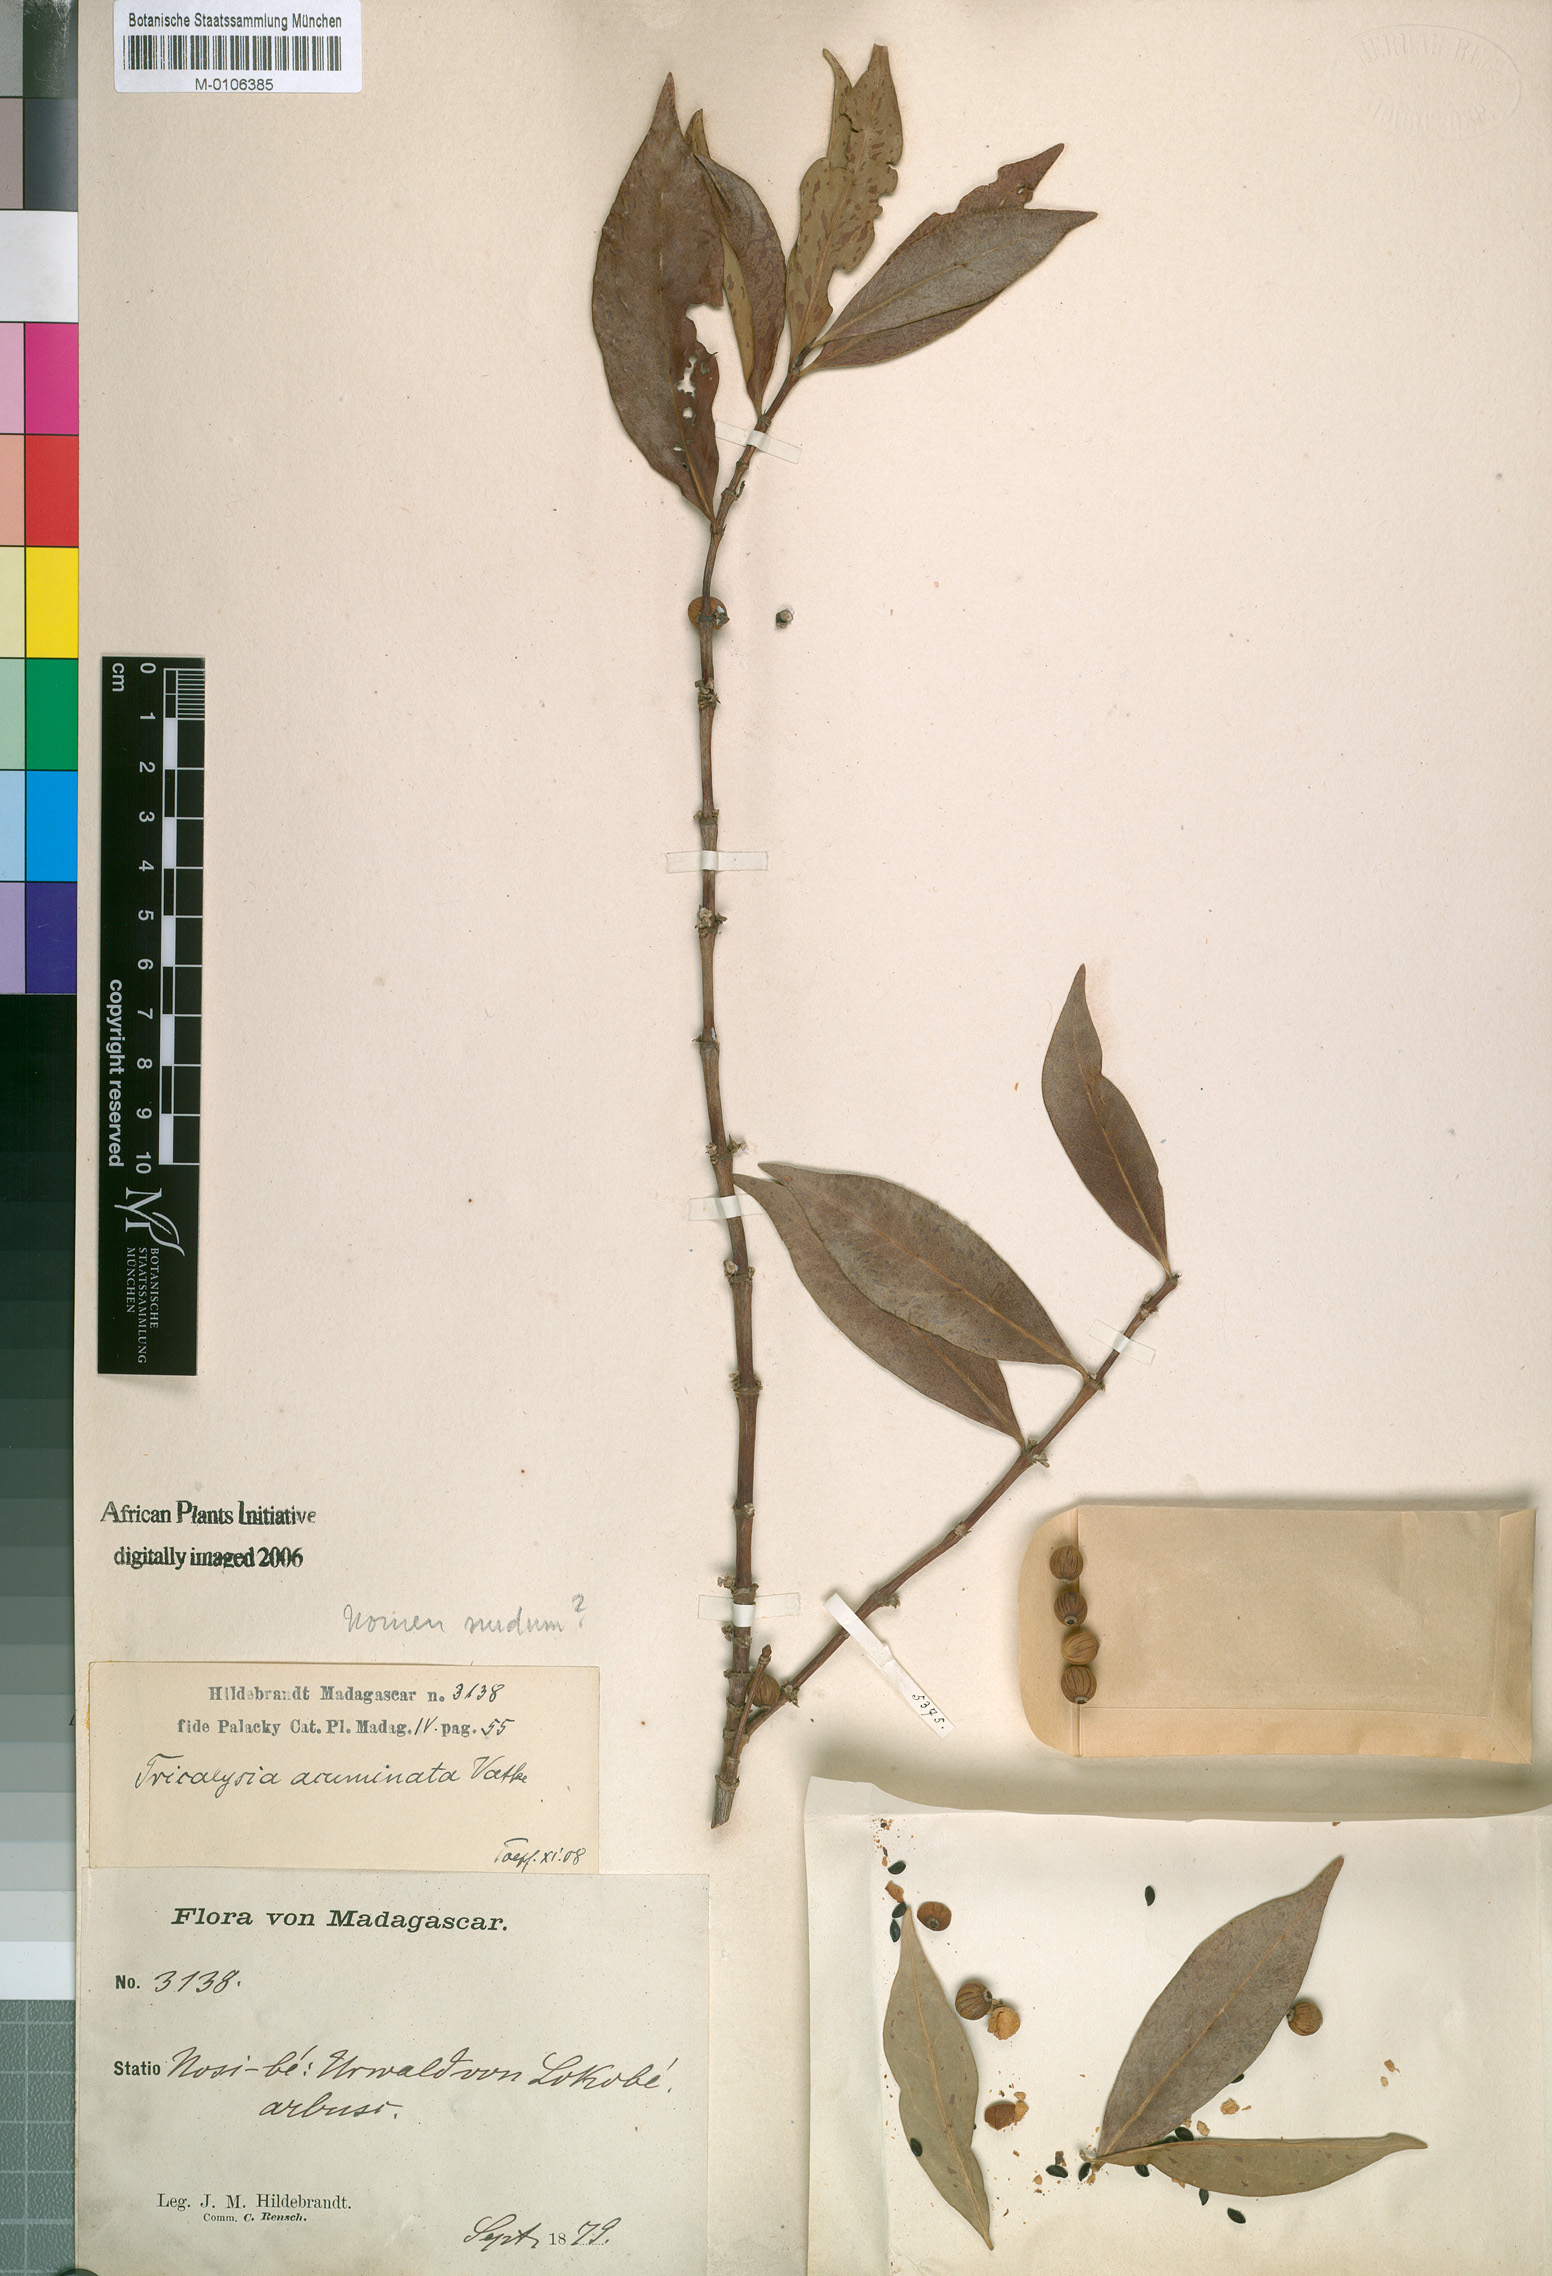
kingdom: Plantae
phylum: Tracheophyta
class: Magnoliopsida
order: Gentianales
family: Rubiaceae
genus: Tricalysia
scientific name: Tricalysia
